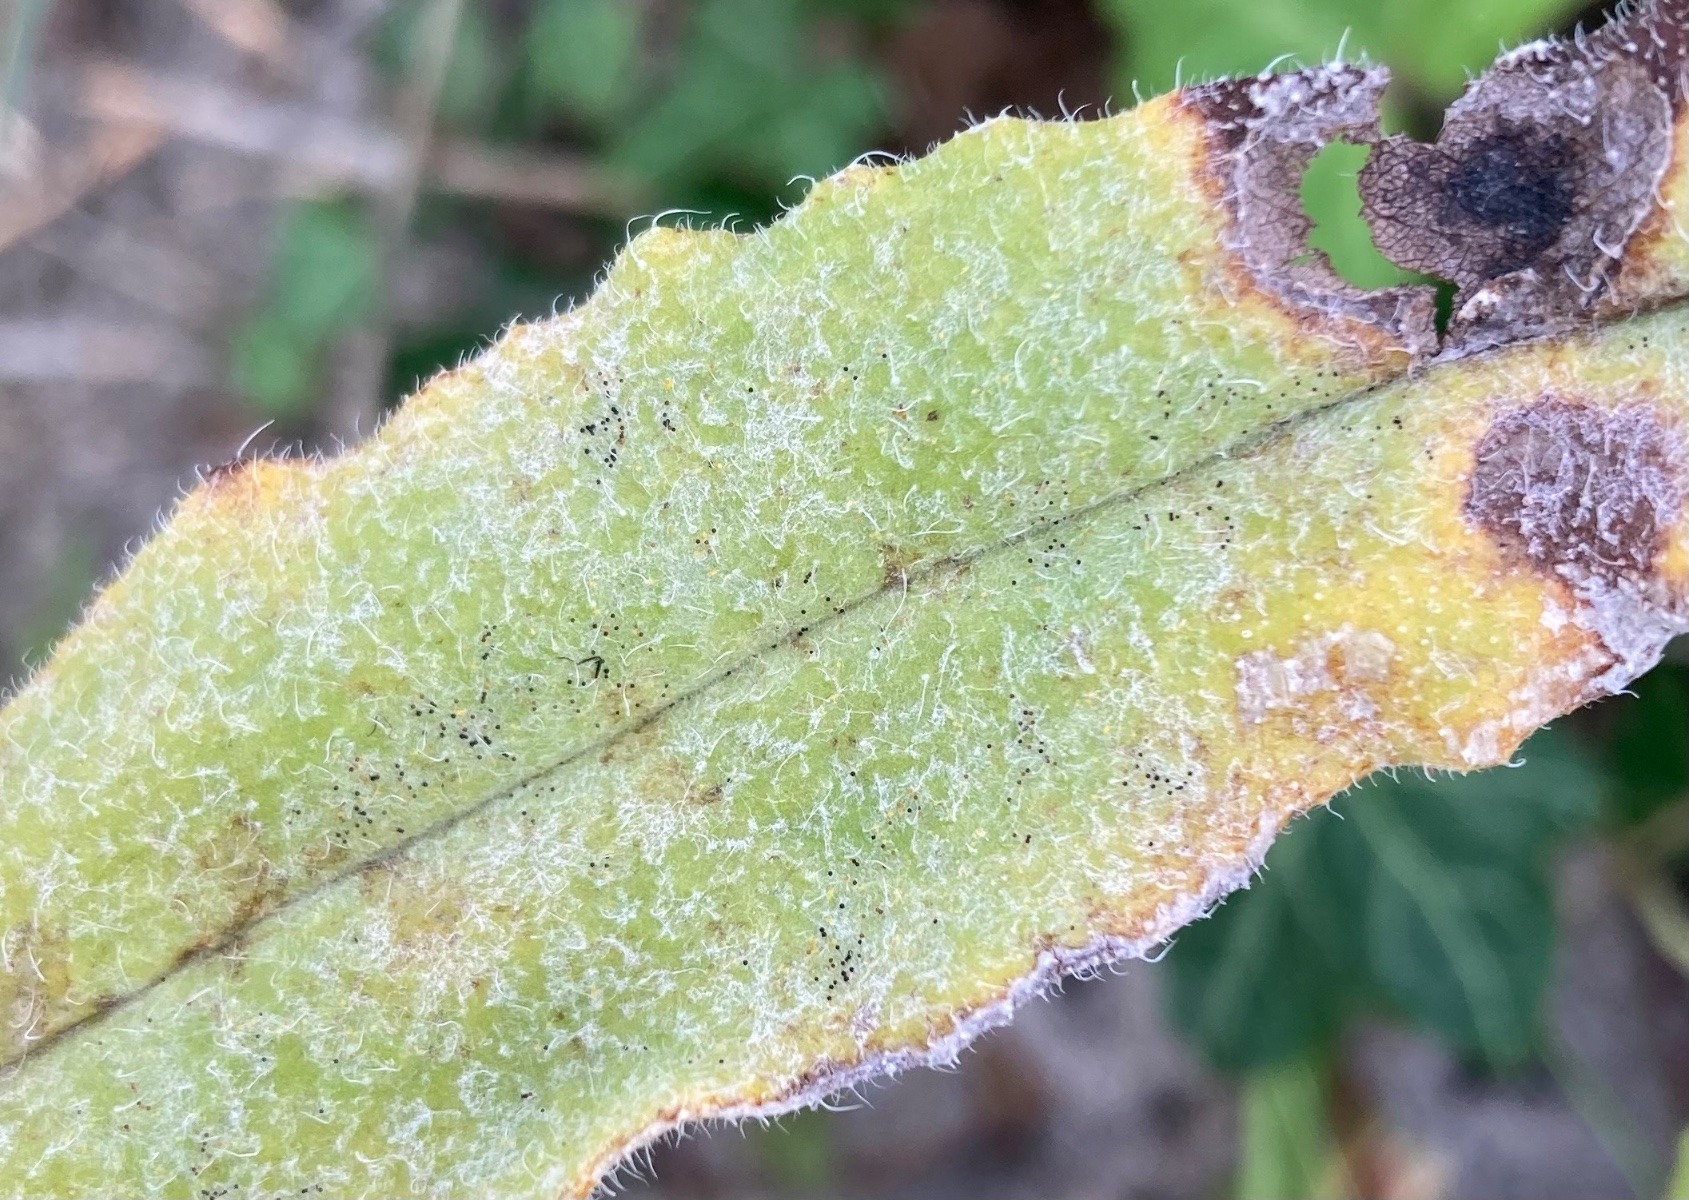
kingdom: Fungi
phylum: Ascomycota
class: Leotiomycetes
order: Helotiales
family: Erysiphaceae
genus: Golovinomyces
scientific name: Golovinomyces
